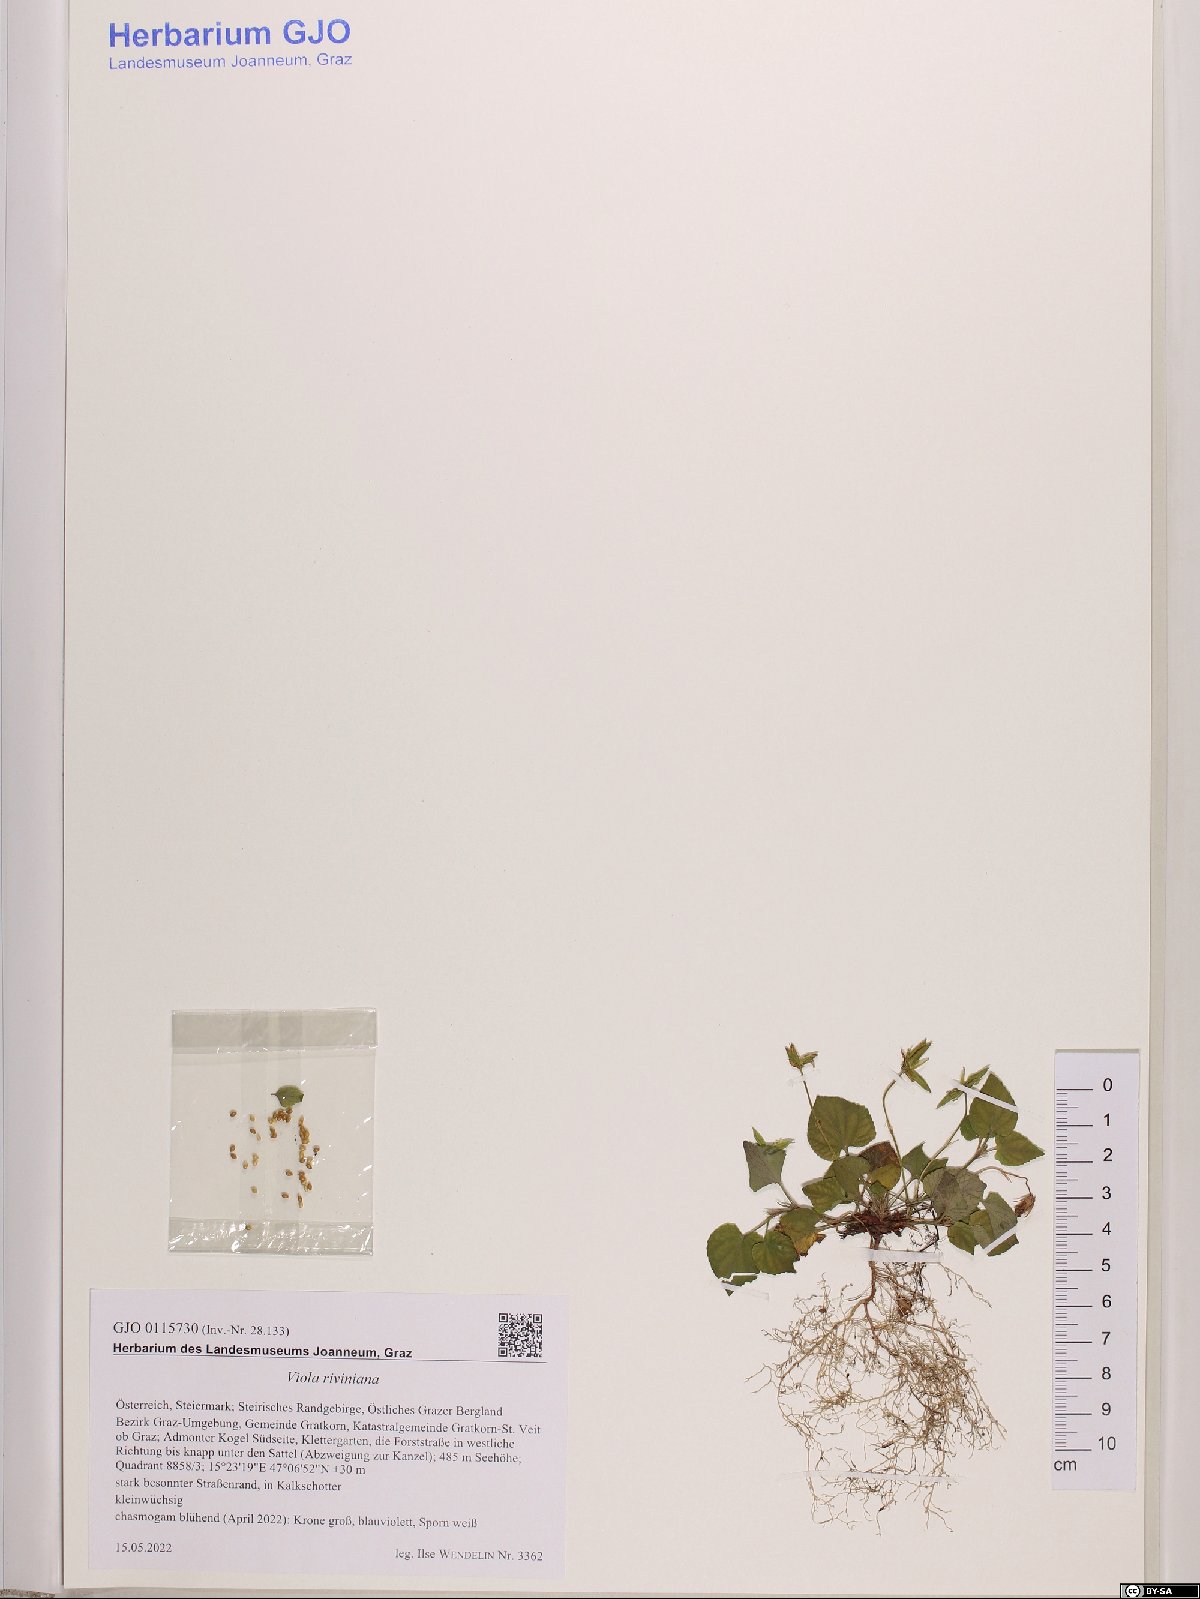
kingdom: Plantae
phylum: Tracheophyta
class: Magnoliopsida
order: Malpighiales
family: Violaceae
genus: Viola
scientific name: Viola riviniana
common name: Common dog-violet
